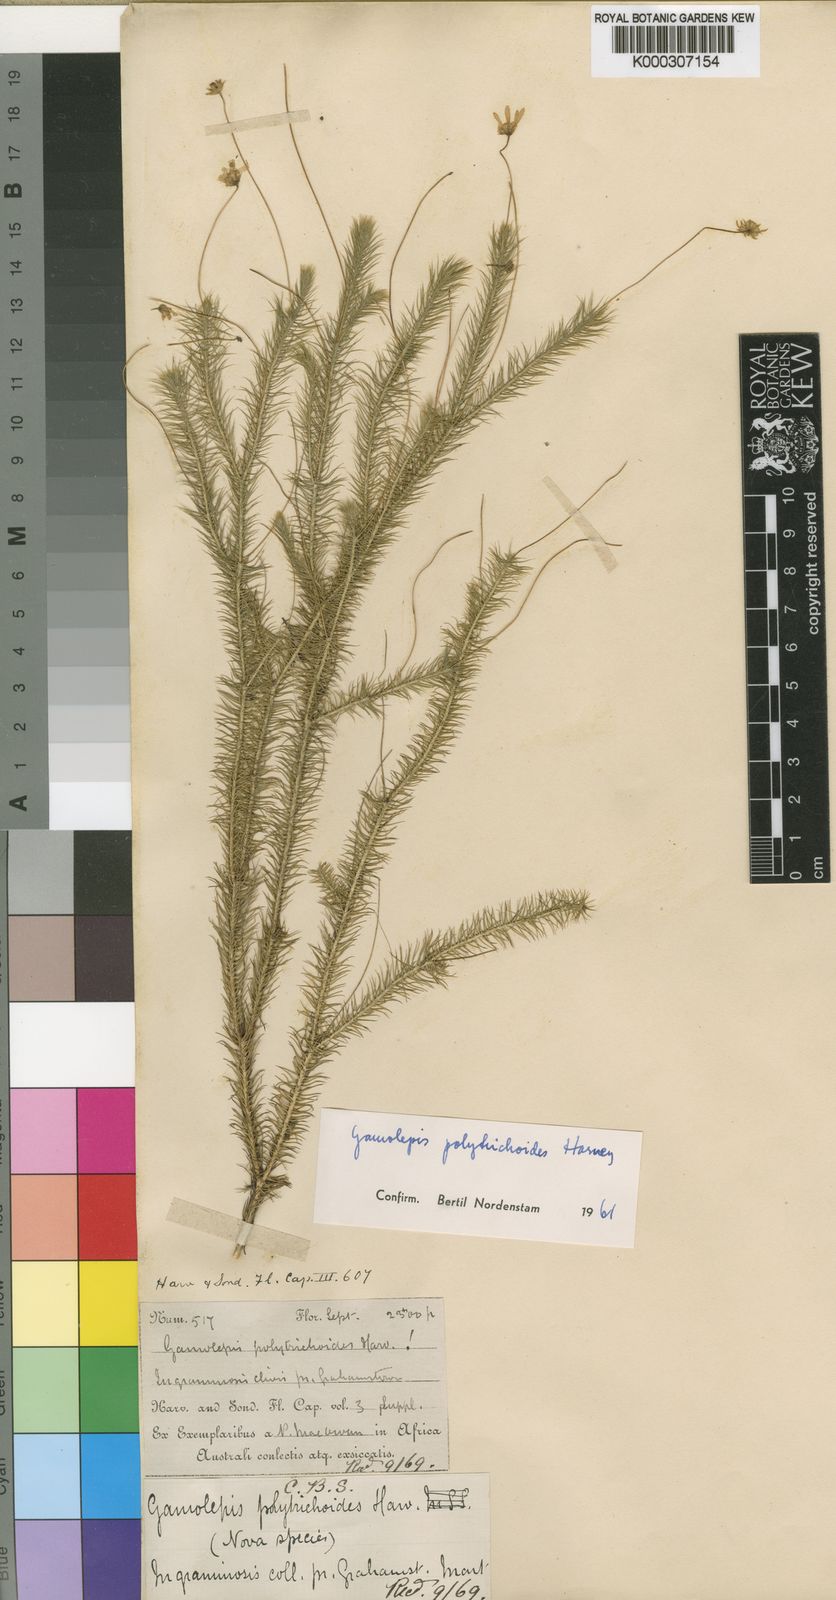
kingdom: Plantae
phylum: Tracheophyta
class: Magnoliopsida
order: Asterales
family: Asteraceae
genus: Euryops
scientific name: Euryops polytrichoides
